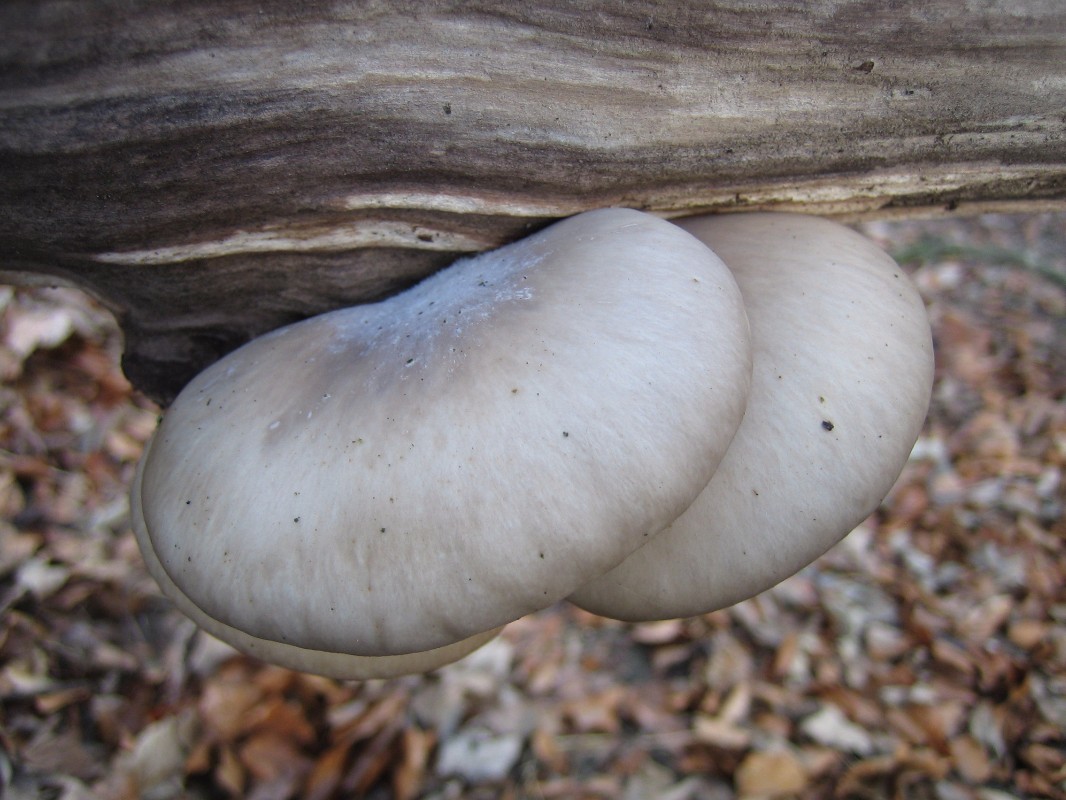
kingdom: Fungi
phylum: Basidiomycota
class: Agaricomycetes
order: Agaricales
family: Pleurotaceae
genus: Pleurotus
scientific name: Pleurotus ostreatus
